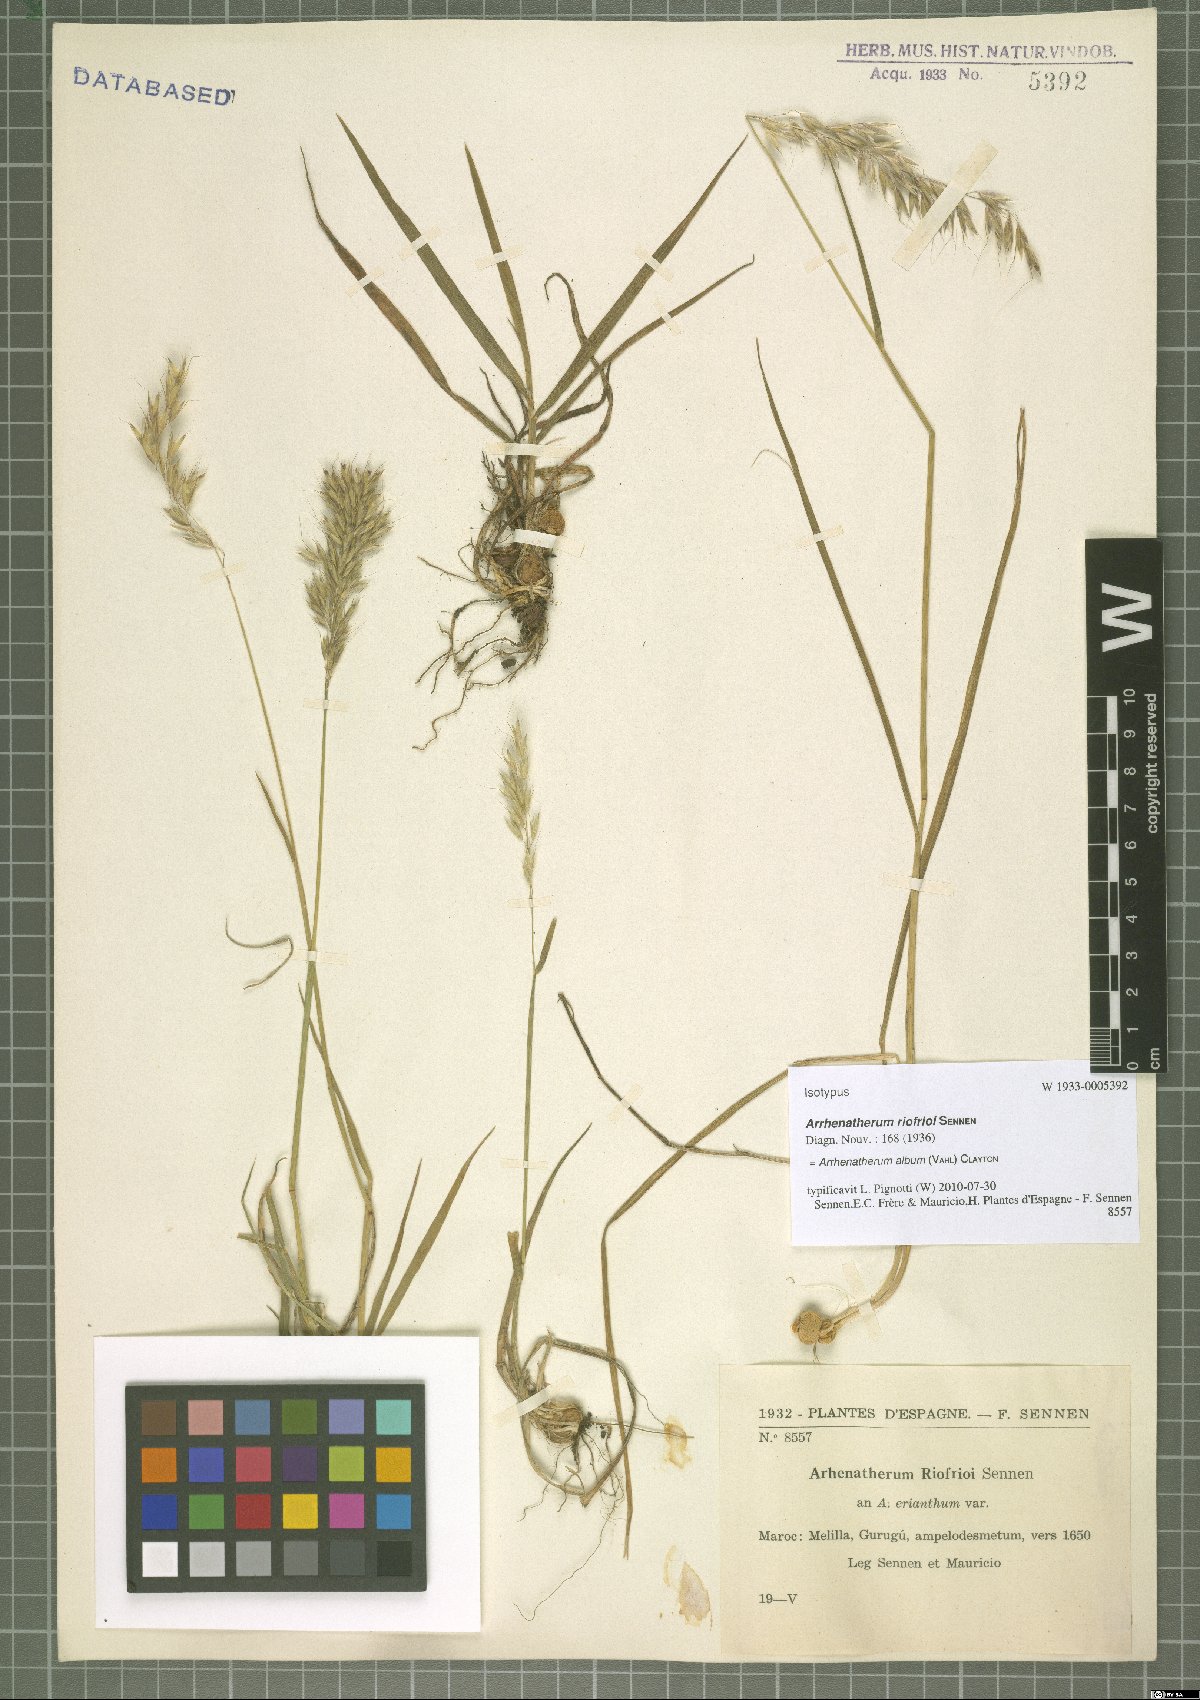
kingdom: Plantae
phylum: Tracheophyta
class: Liliopsida
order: Poales
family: Poaceae
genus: Arrhenatherum
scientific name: Arrhenatherum album
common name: Tall oat grass
